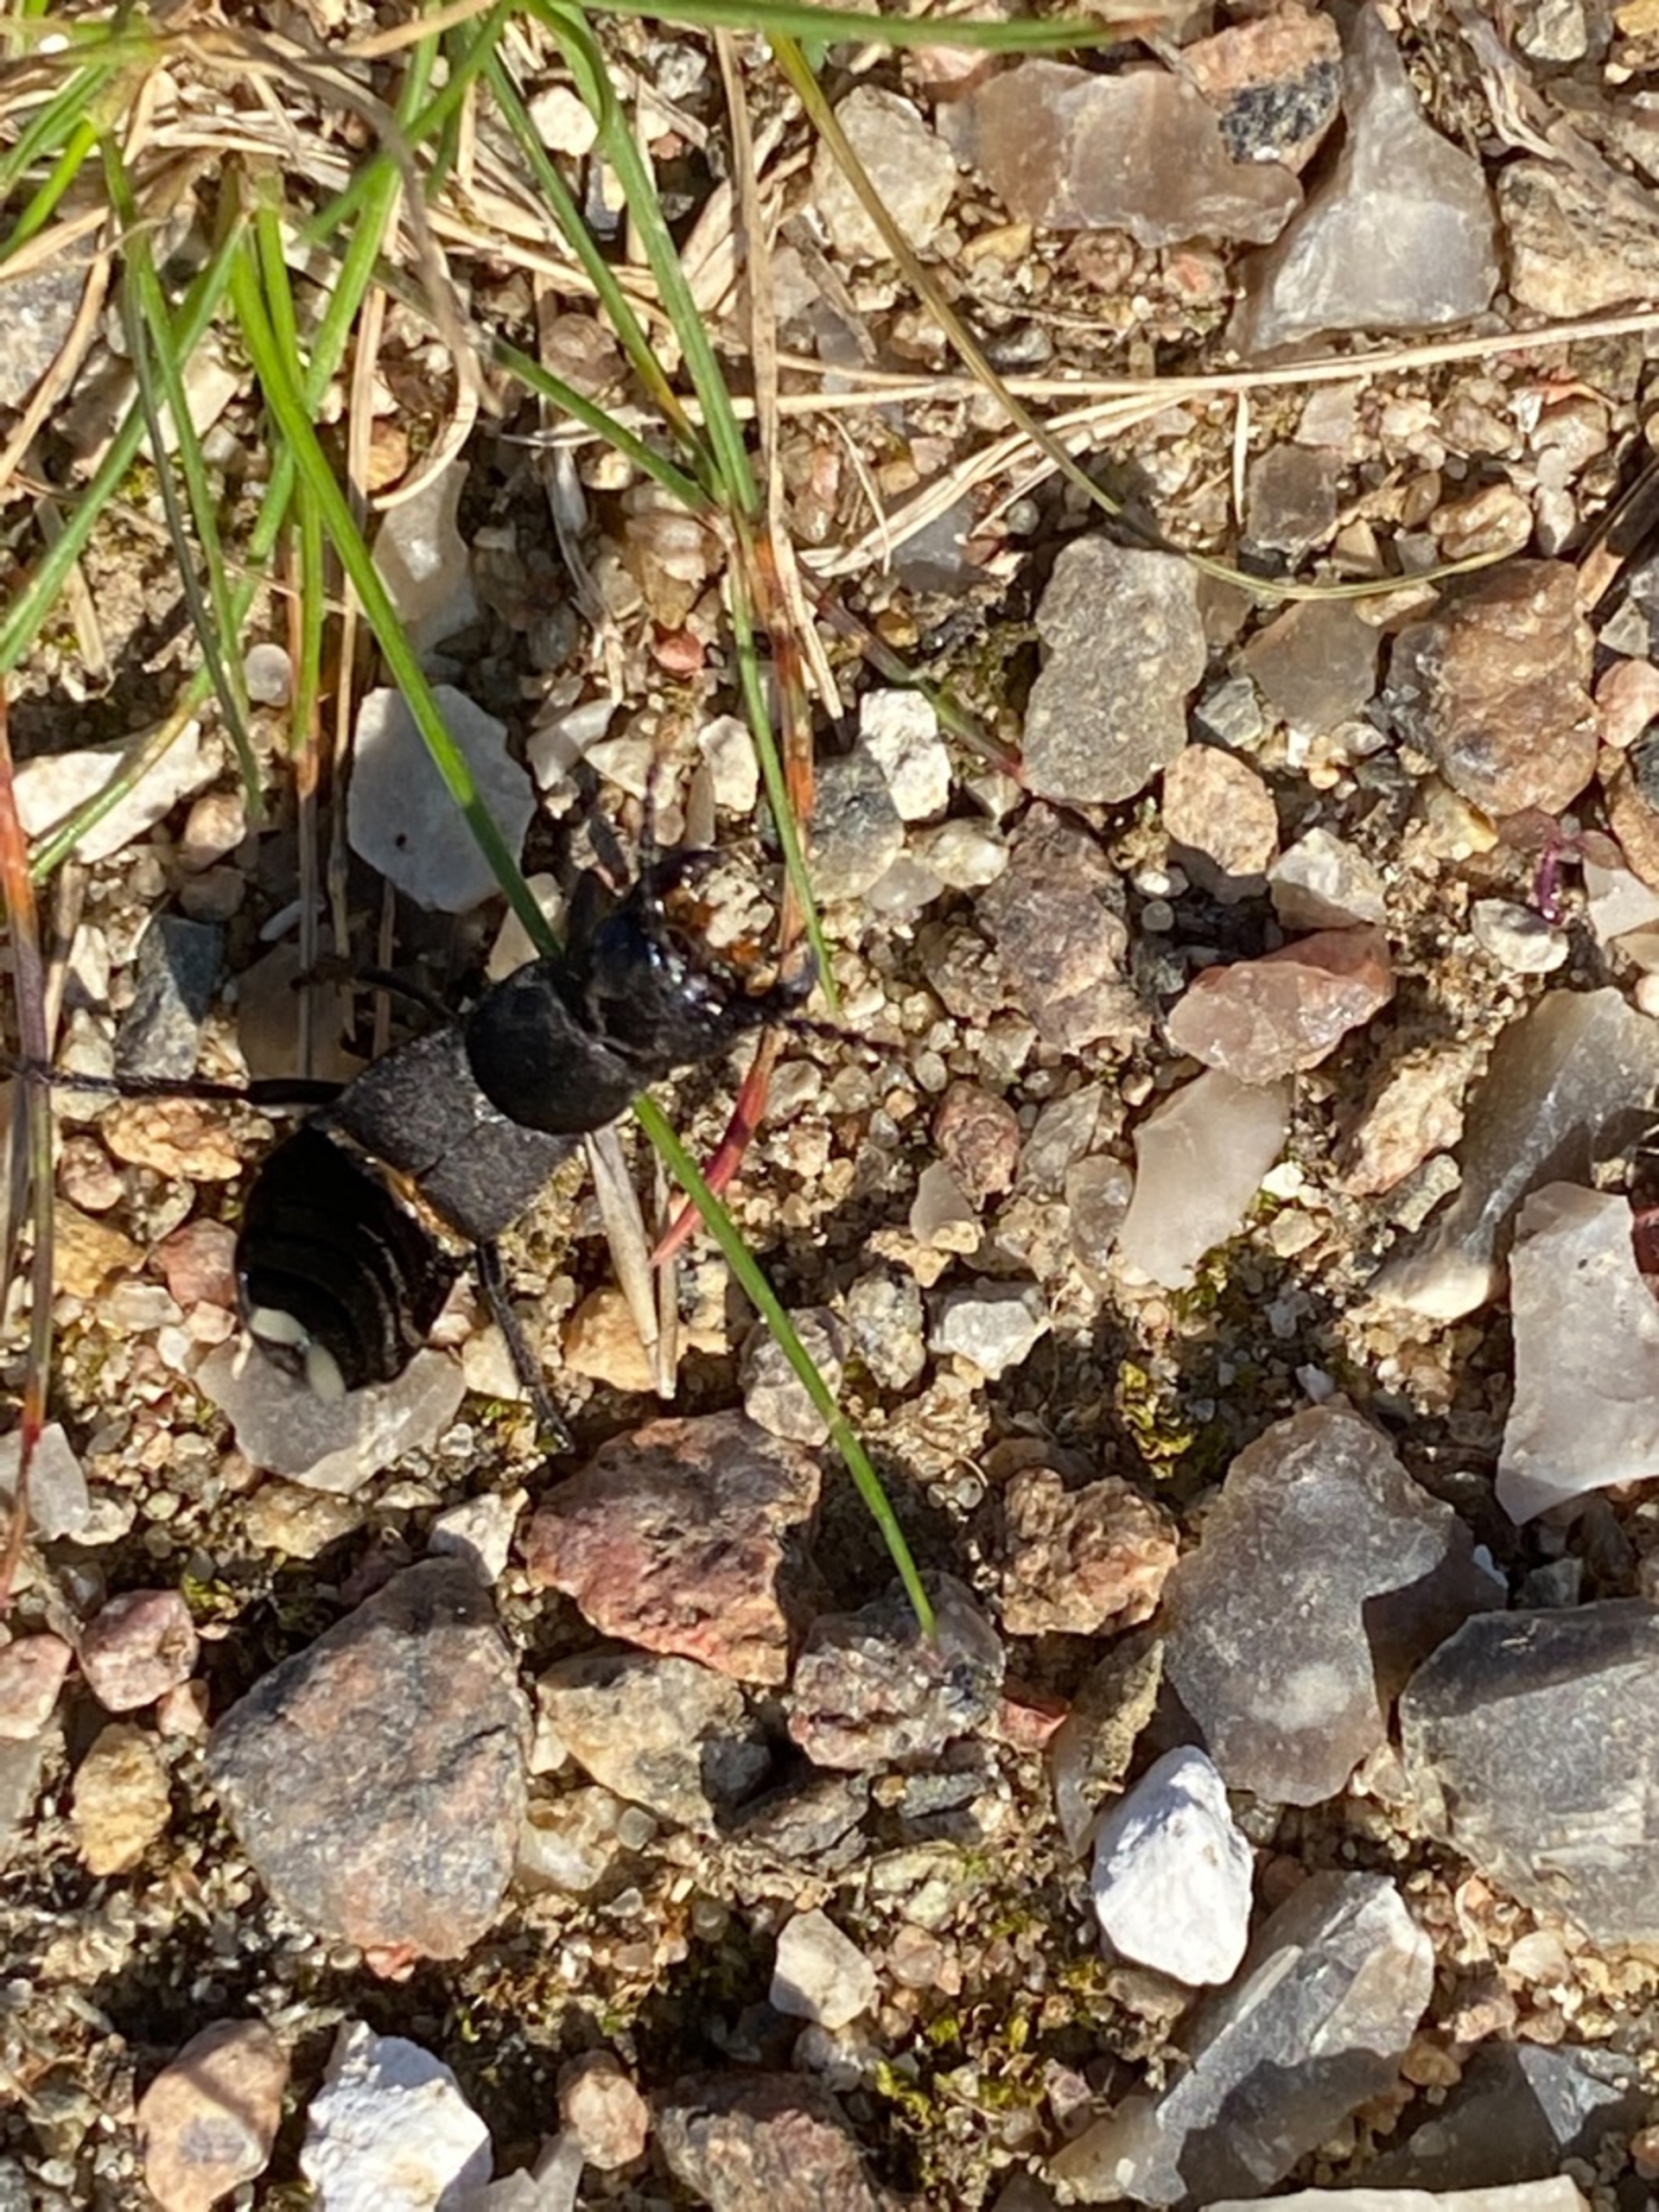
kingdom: Animalia
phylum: Arthropoda
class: Insecta
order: Coleoptera
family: Staphylinidae
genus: Ocypus
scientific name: Ocypus olens
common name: Stor rovbille
